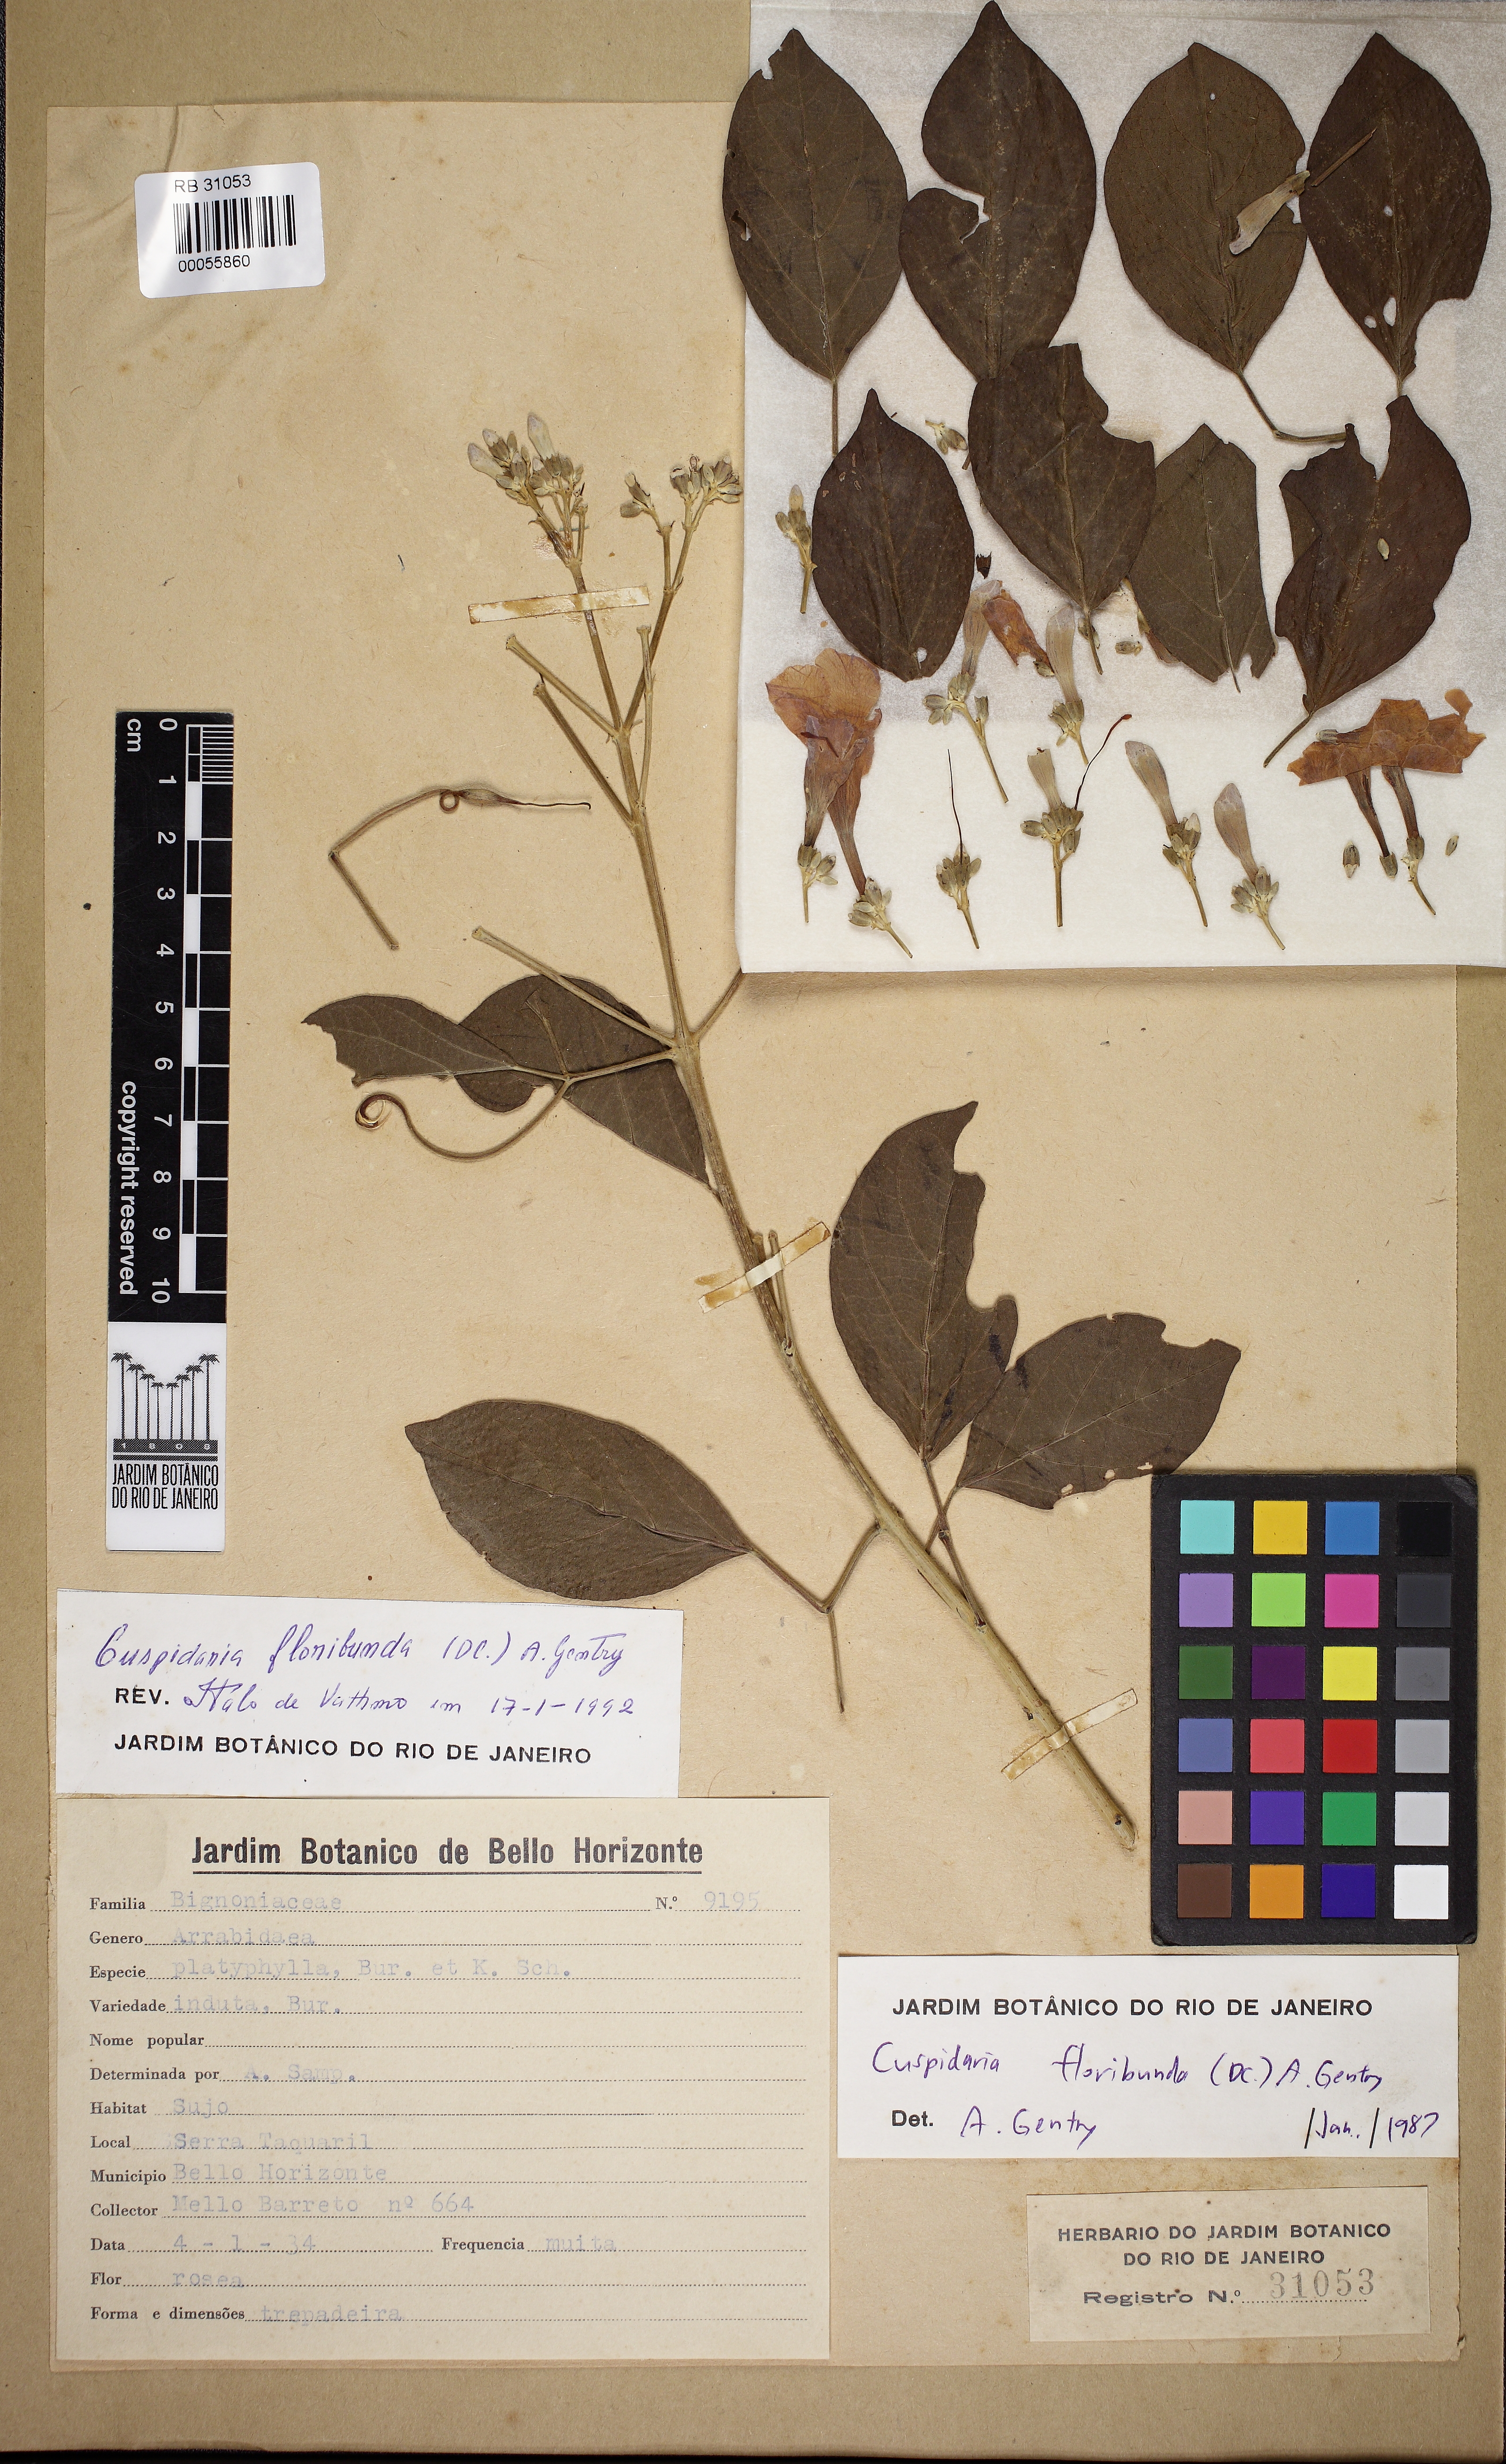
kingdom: Plantae
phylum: Tracheophyta
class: Magnoliopsida
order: Lamiales
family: Bignoniaceae
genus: Cuspidaria
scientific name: Cuspidaria floribunda
